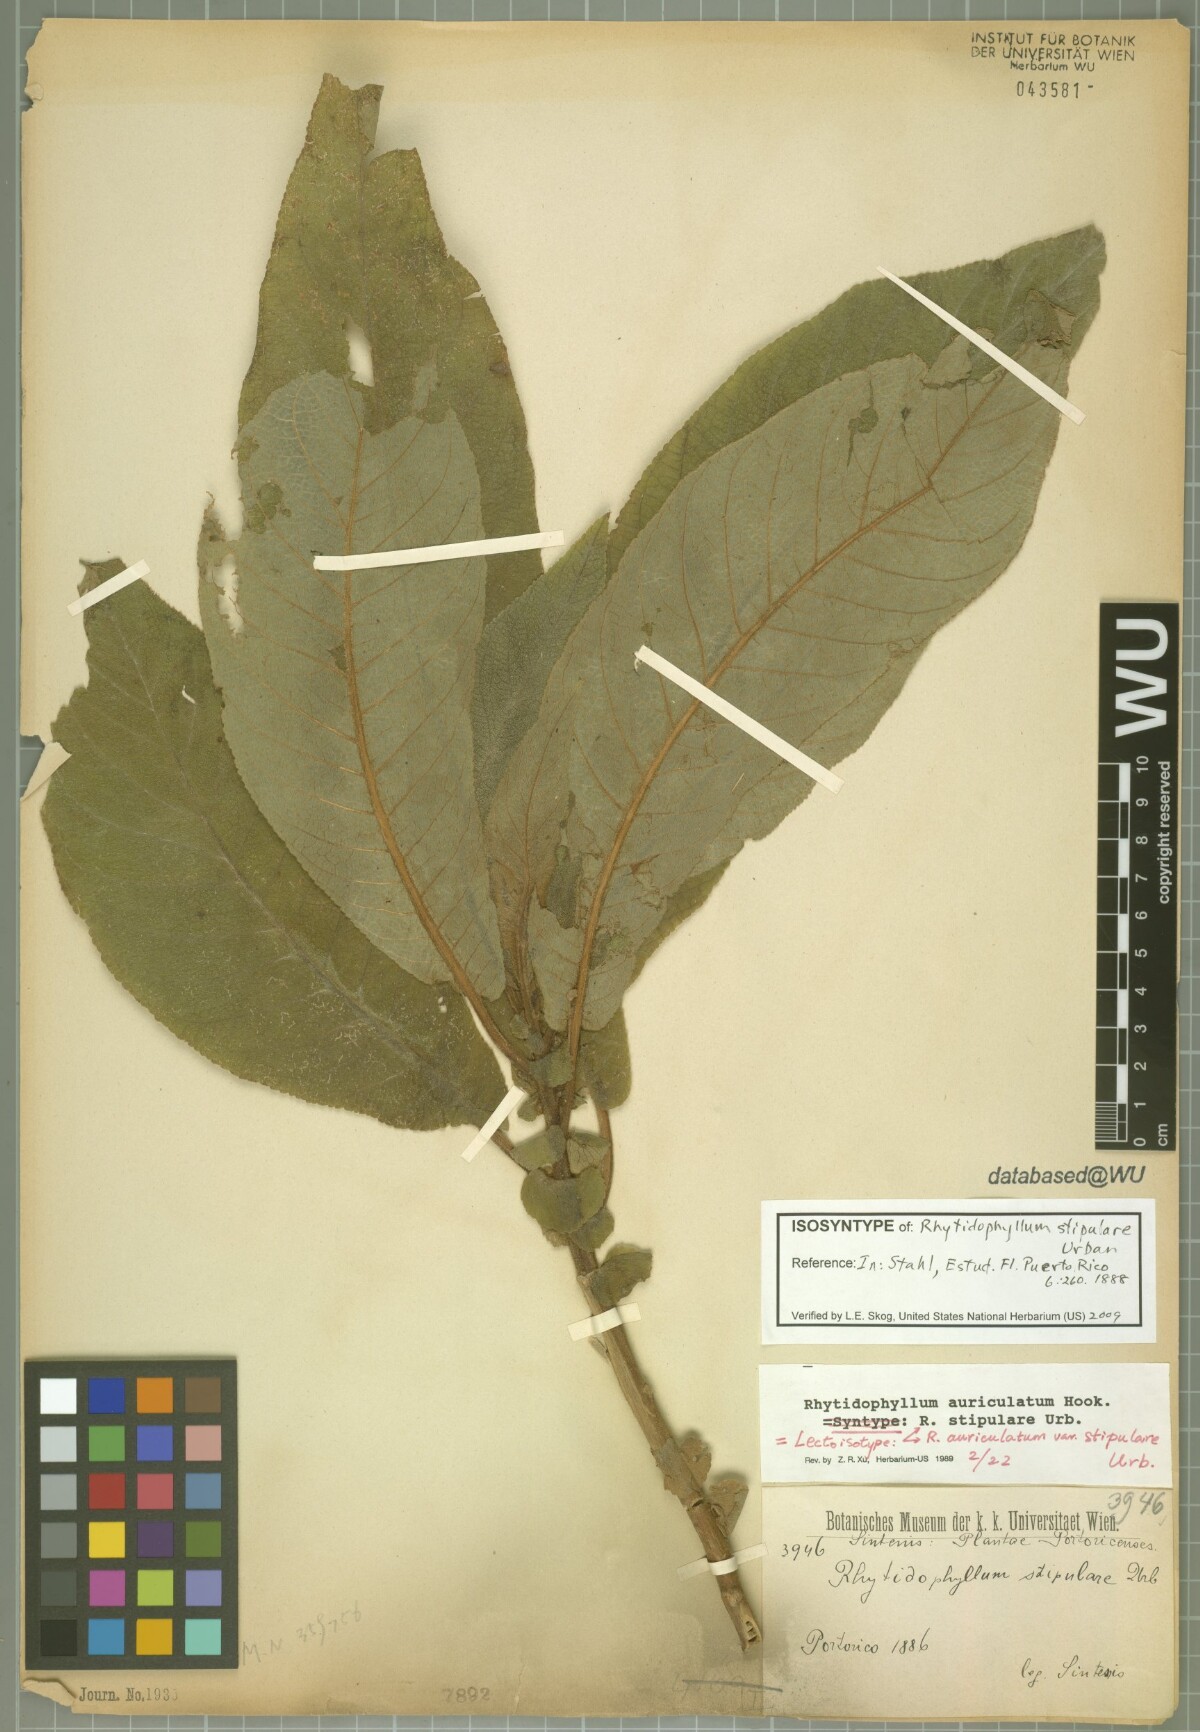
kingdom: Plantae
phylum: Tracheophyta
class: Magnoliopsida
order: Lamiales
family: Gesneriaceae
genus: Rhytidophyllum
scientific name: Rhytidophyllum auriculatum
